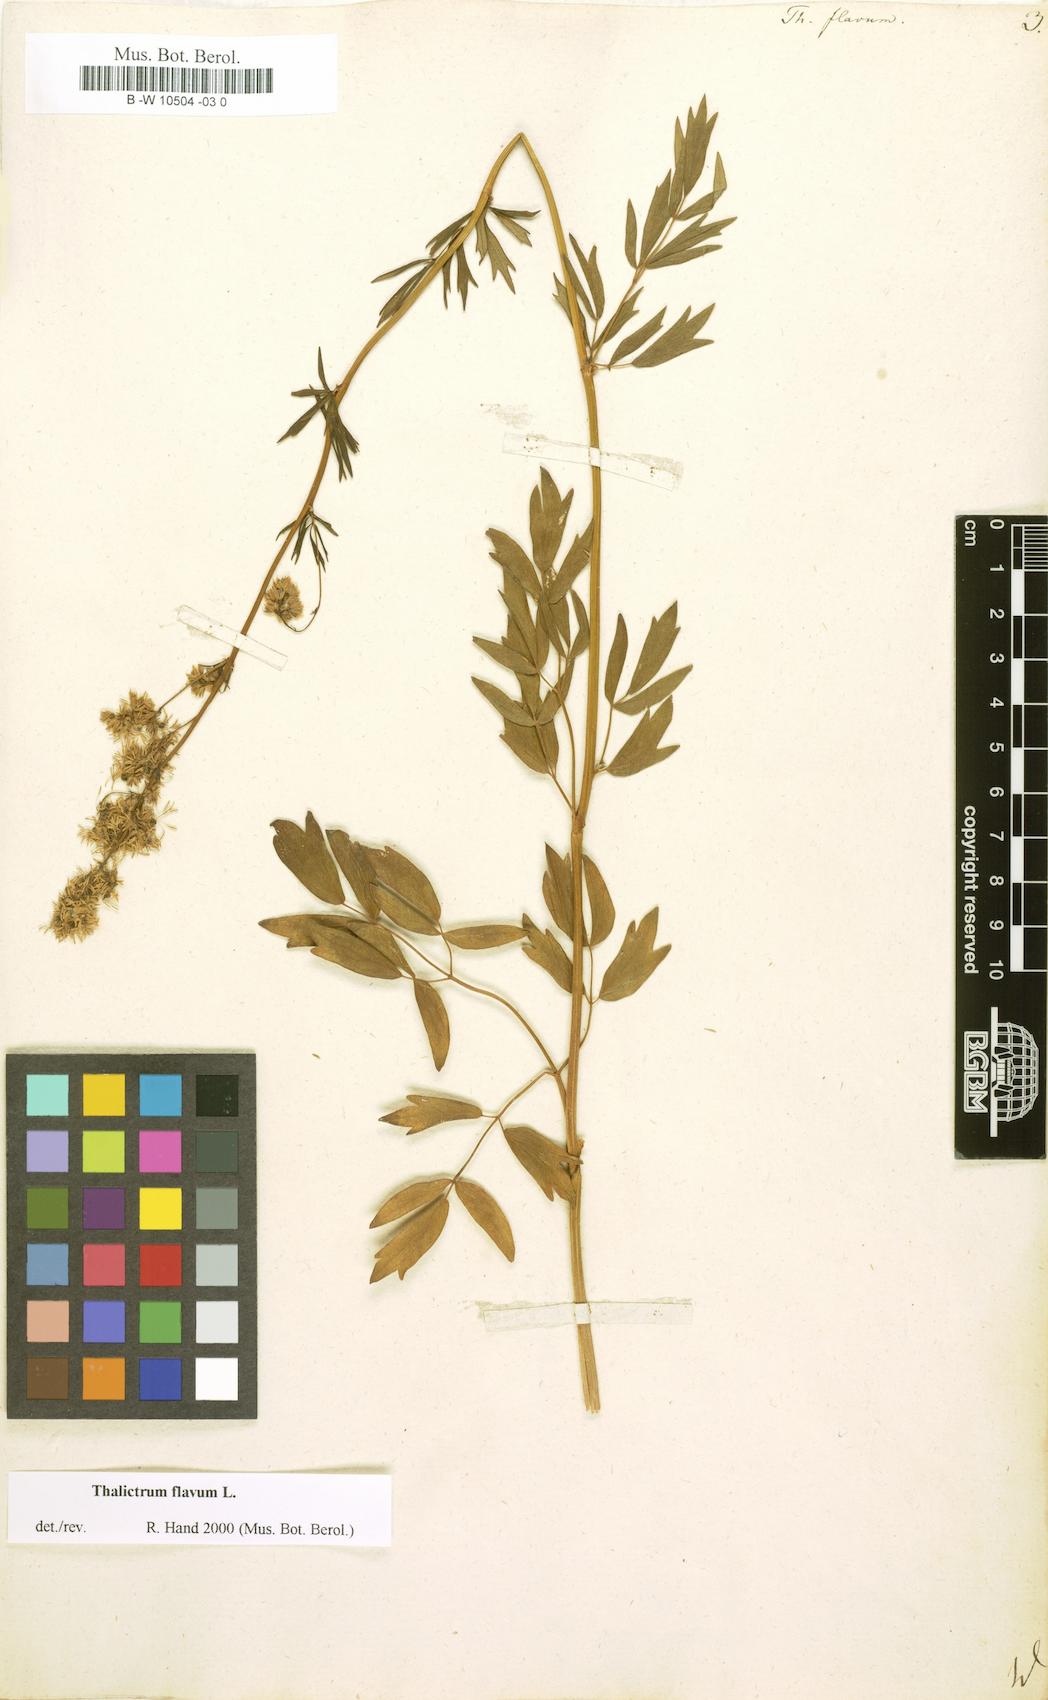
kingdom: Plantae
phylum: Tracheophyta
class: Magnoliopsida
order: Ranunculales
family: Ranunculaceae
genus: Thalictrum
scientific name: Thalictrum flavum
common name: Common meadow-rue
